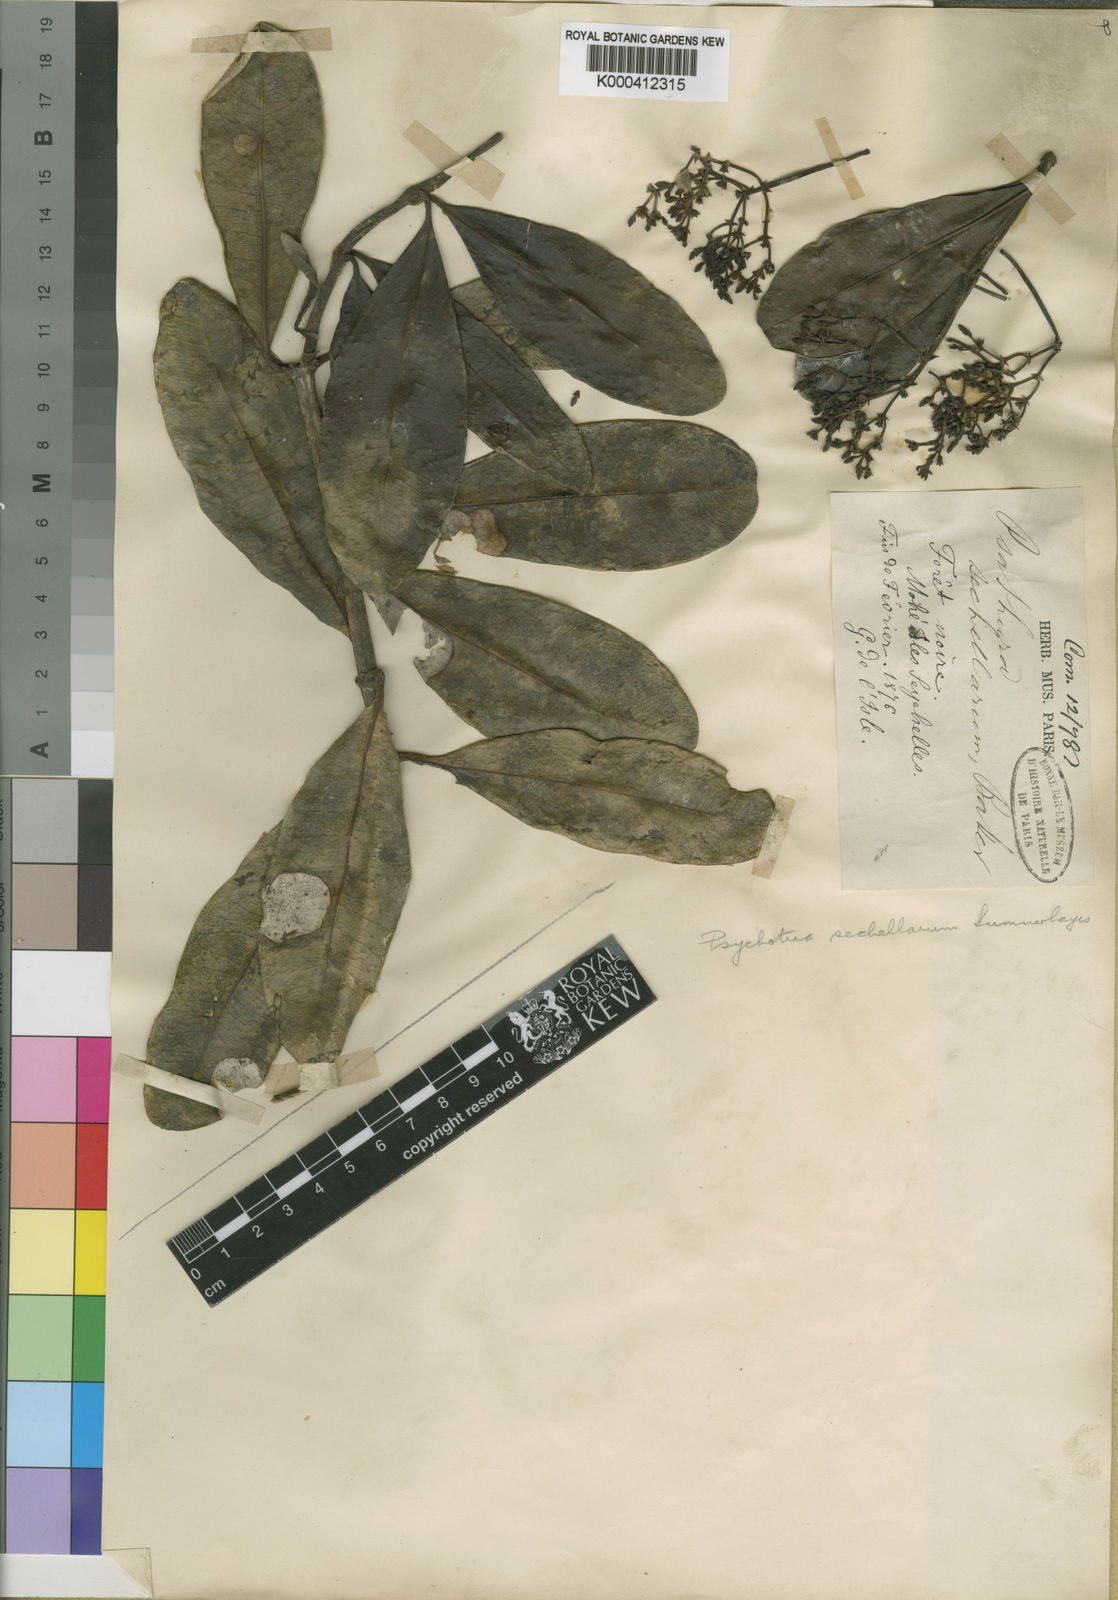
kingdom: Plantae
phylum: Tracheophyta
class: Magnoliopsida
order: Gentianales
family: Rubiaceae
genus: Seychellea
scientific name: Seychellea sechellarum
